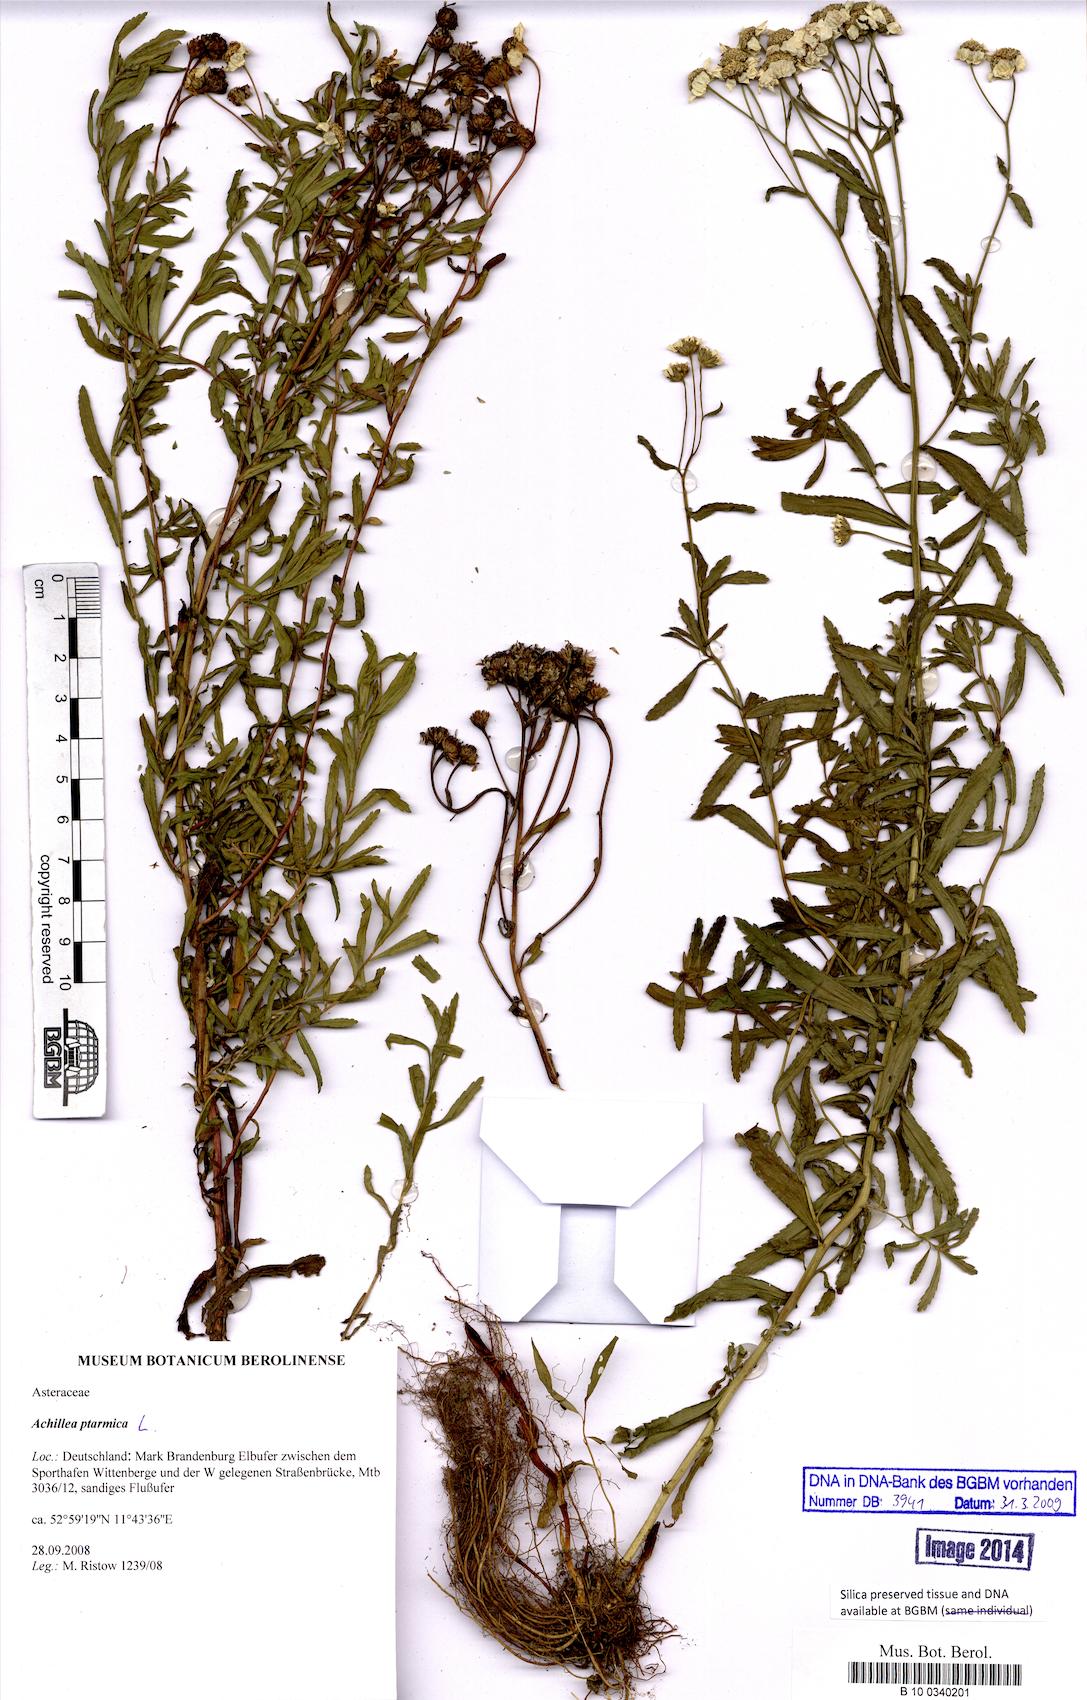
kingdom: Plantae
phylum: Tracheophyta
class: Magnoliopsida
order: Asterales
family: Asteraceae
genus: Achillea
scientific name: Achillea ptarmica
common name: Sneezeweed
